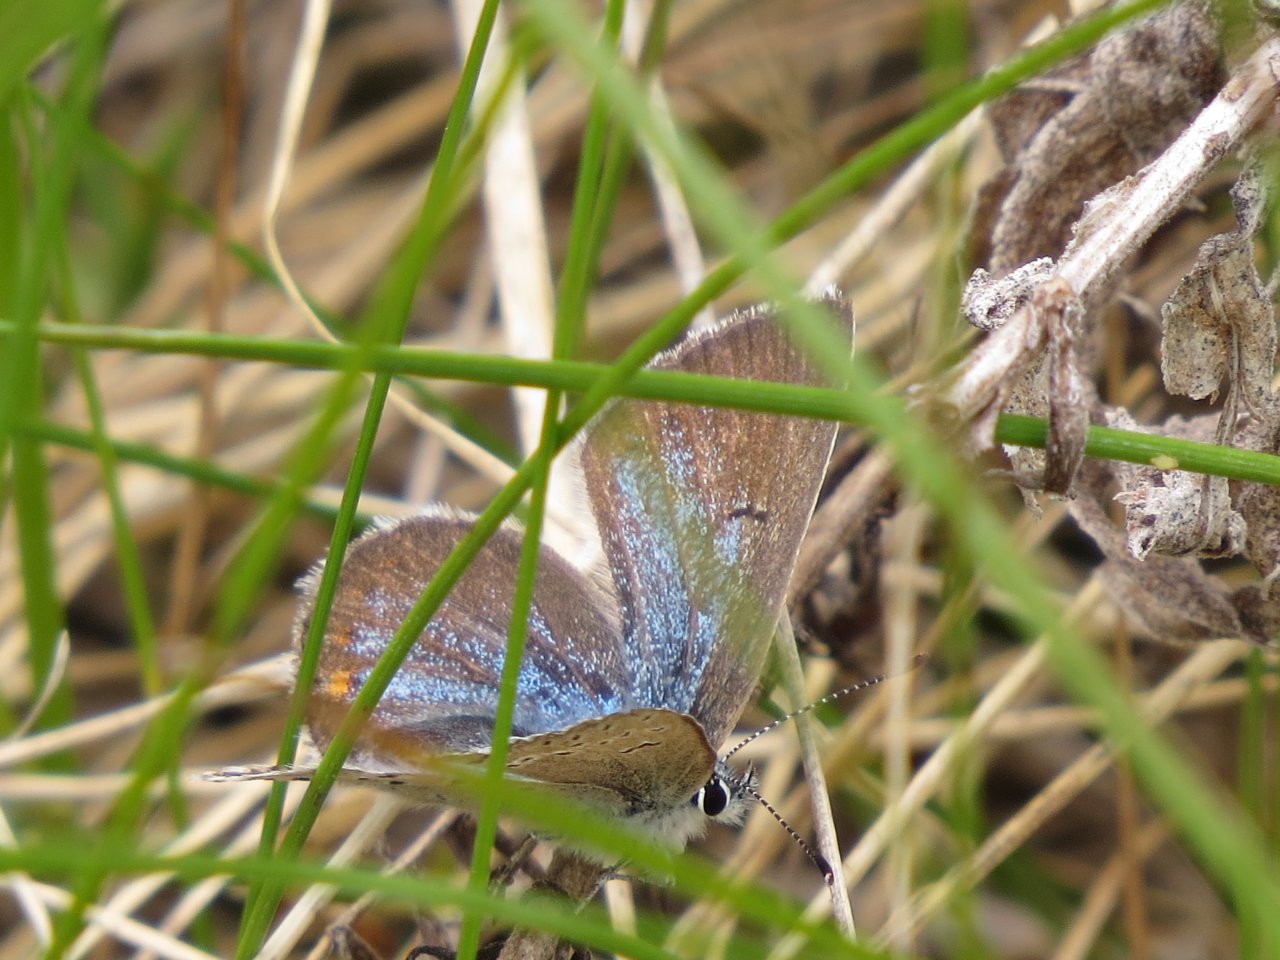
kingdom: Animalia
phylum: Arthropoda
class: Insecta
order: Lepidoptera
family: Lycaenidae
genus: Elkalyce
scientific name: Elkalyce amyntula
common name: Western Tailed-Blue
